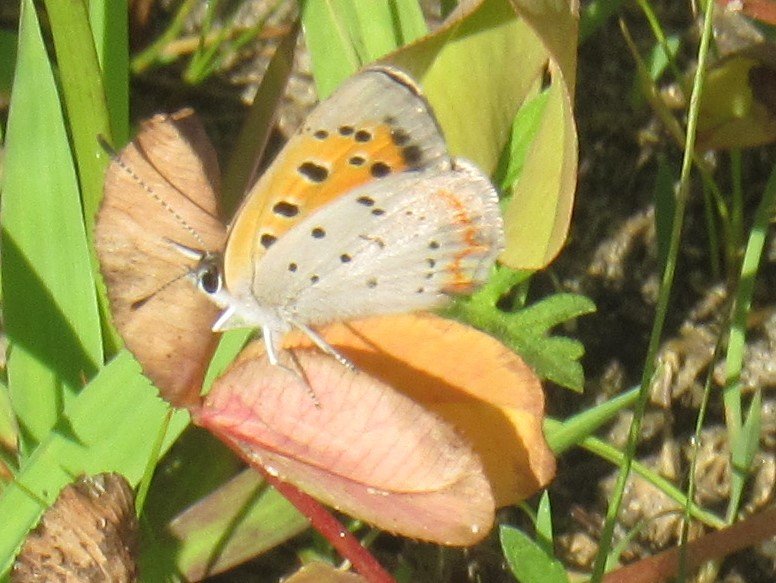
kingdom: Animalia
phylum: Arthropoda
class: Insecta
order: Lepidoptera
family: Lycaenidae
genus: Lycaena
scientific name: Lycaena phlaeas
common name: American Copper
